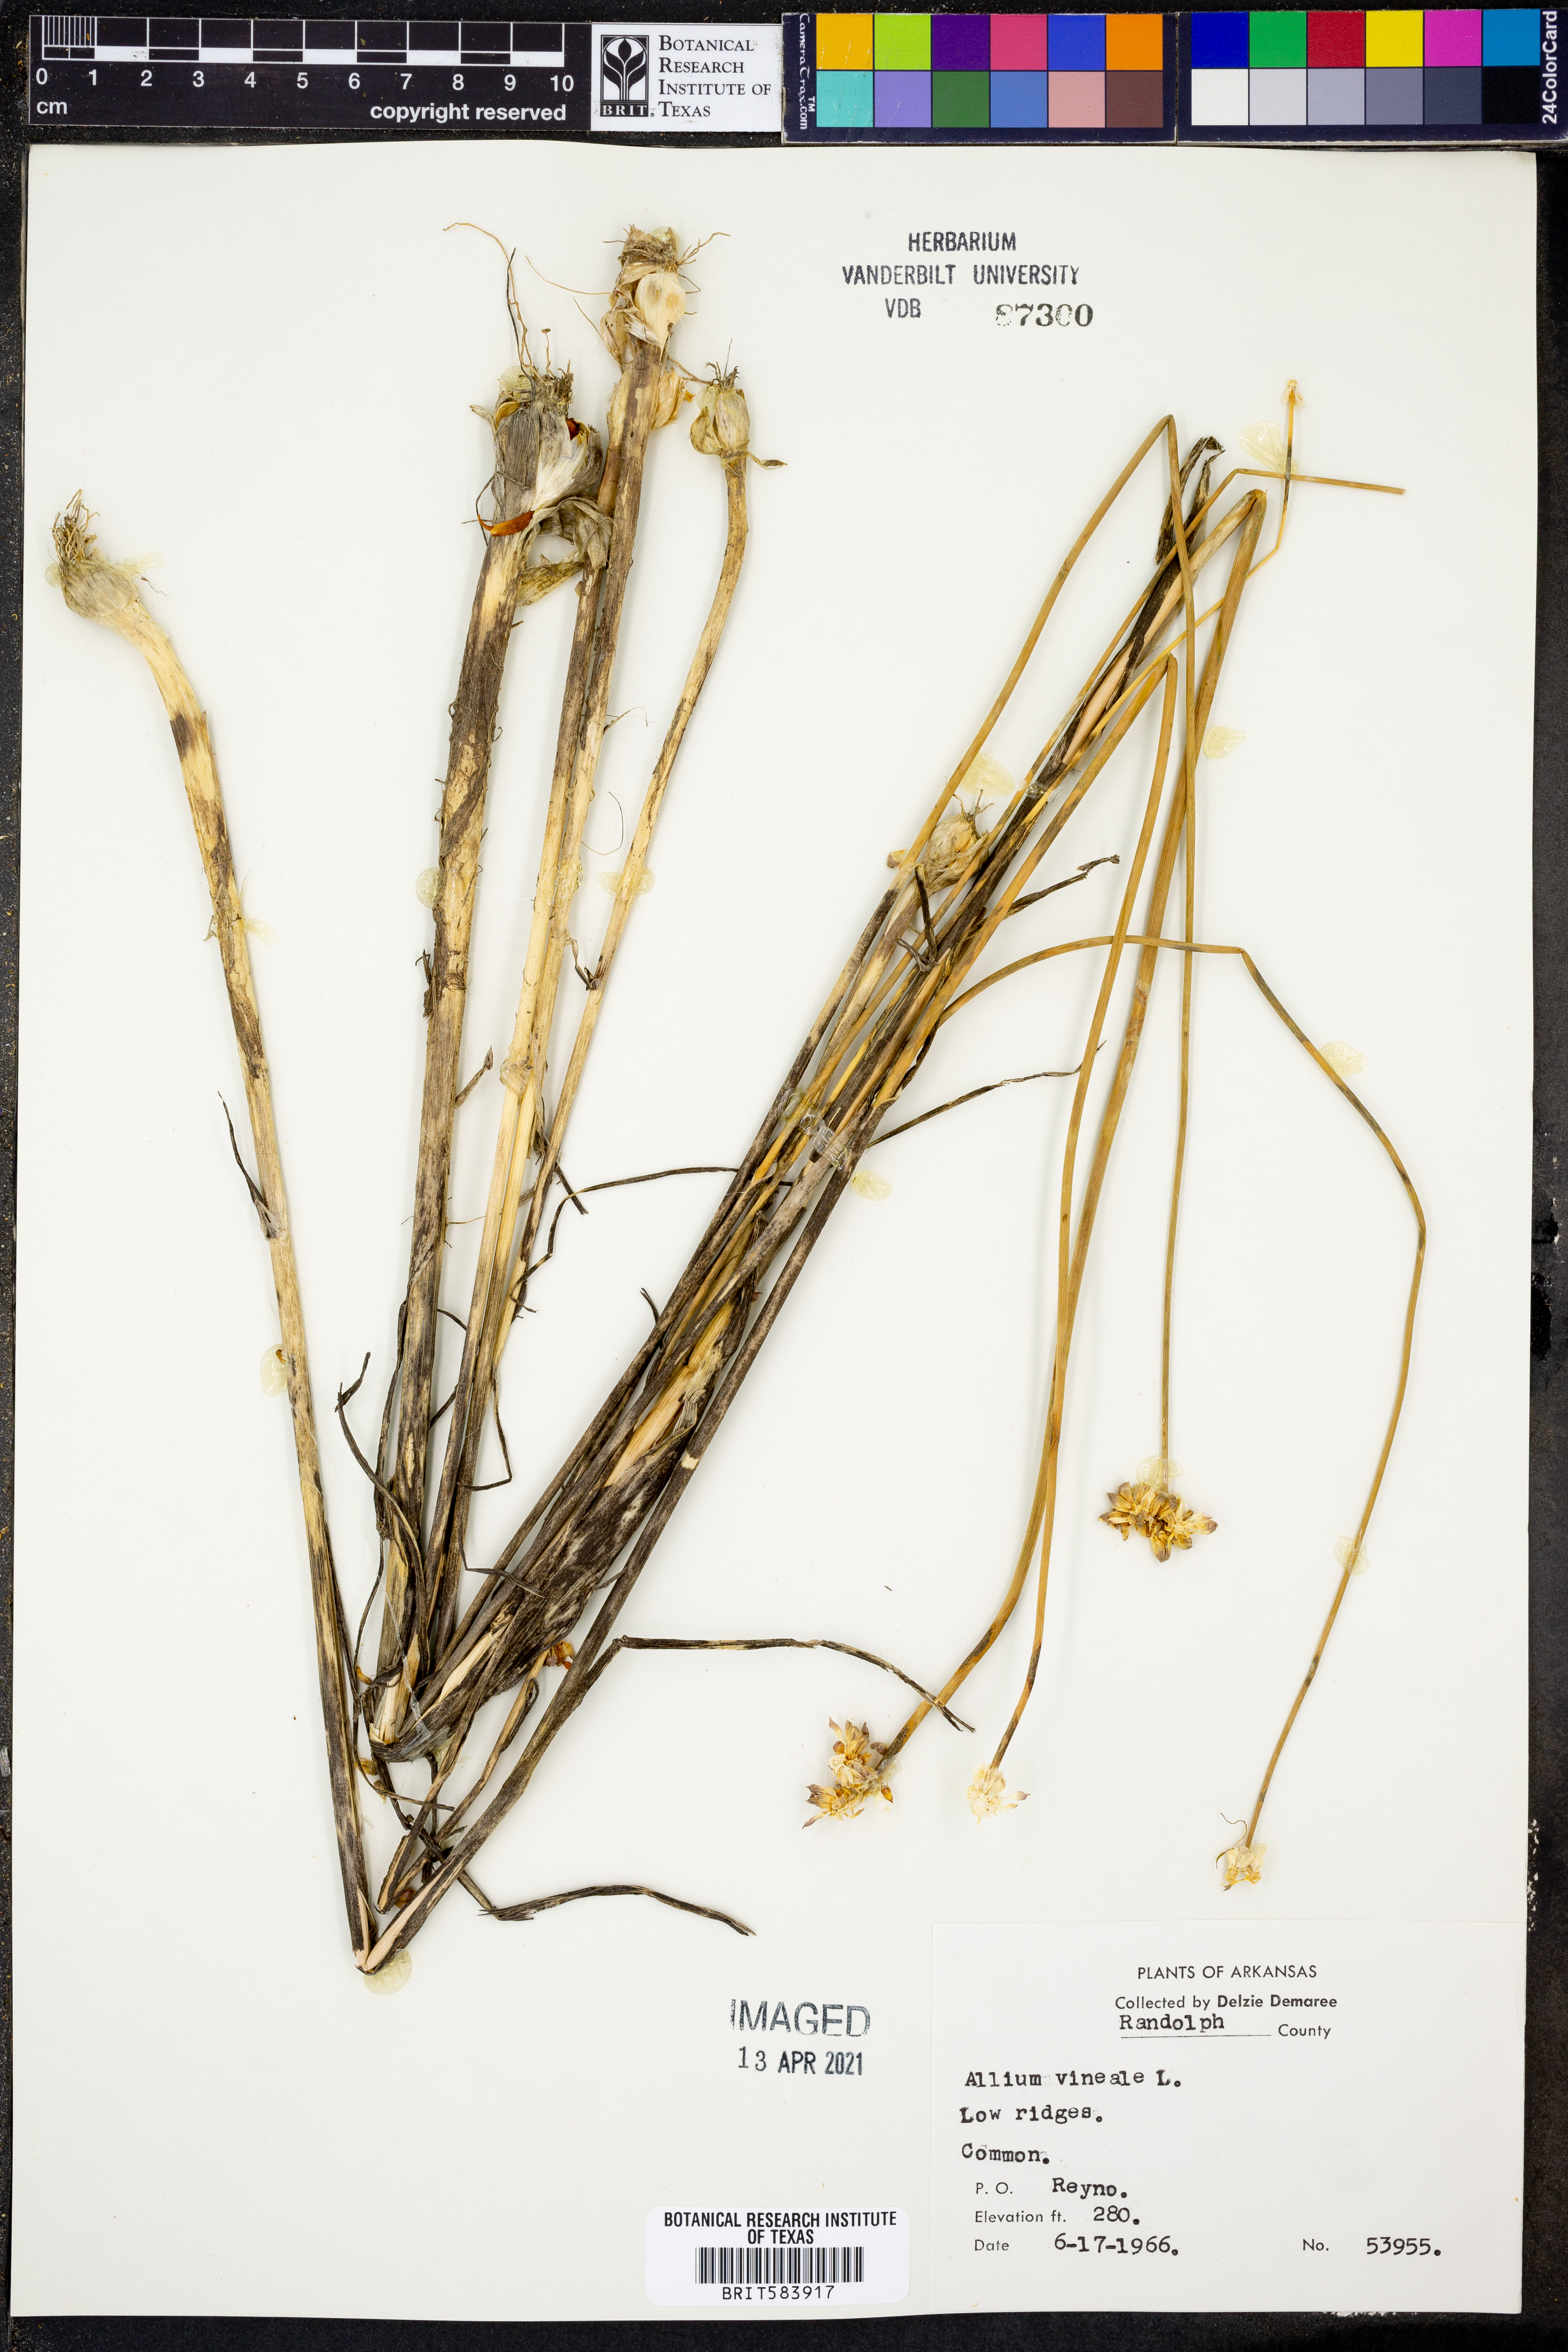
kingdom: Plantae
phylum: Tracheophyta
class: Liliopsida
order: Asparagales
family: Amaryllidaceae
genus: Allium
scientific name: Allium vineale
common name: Crow garlic
